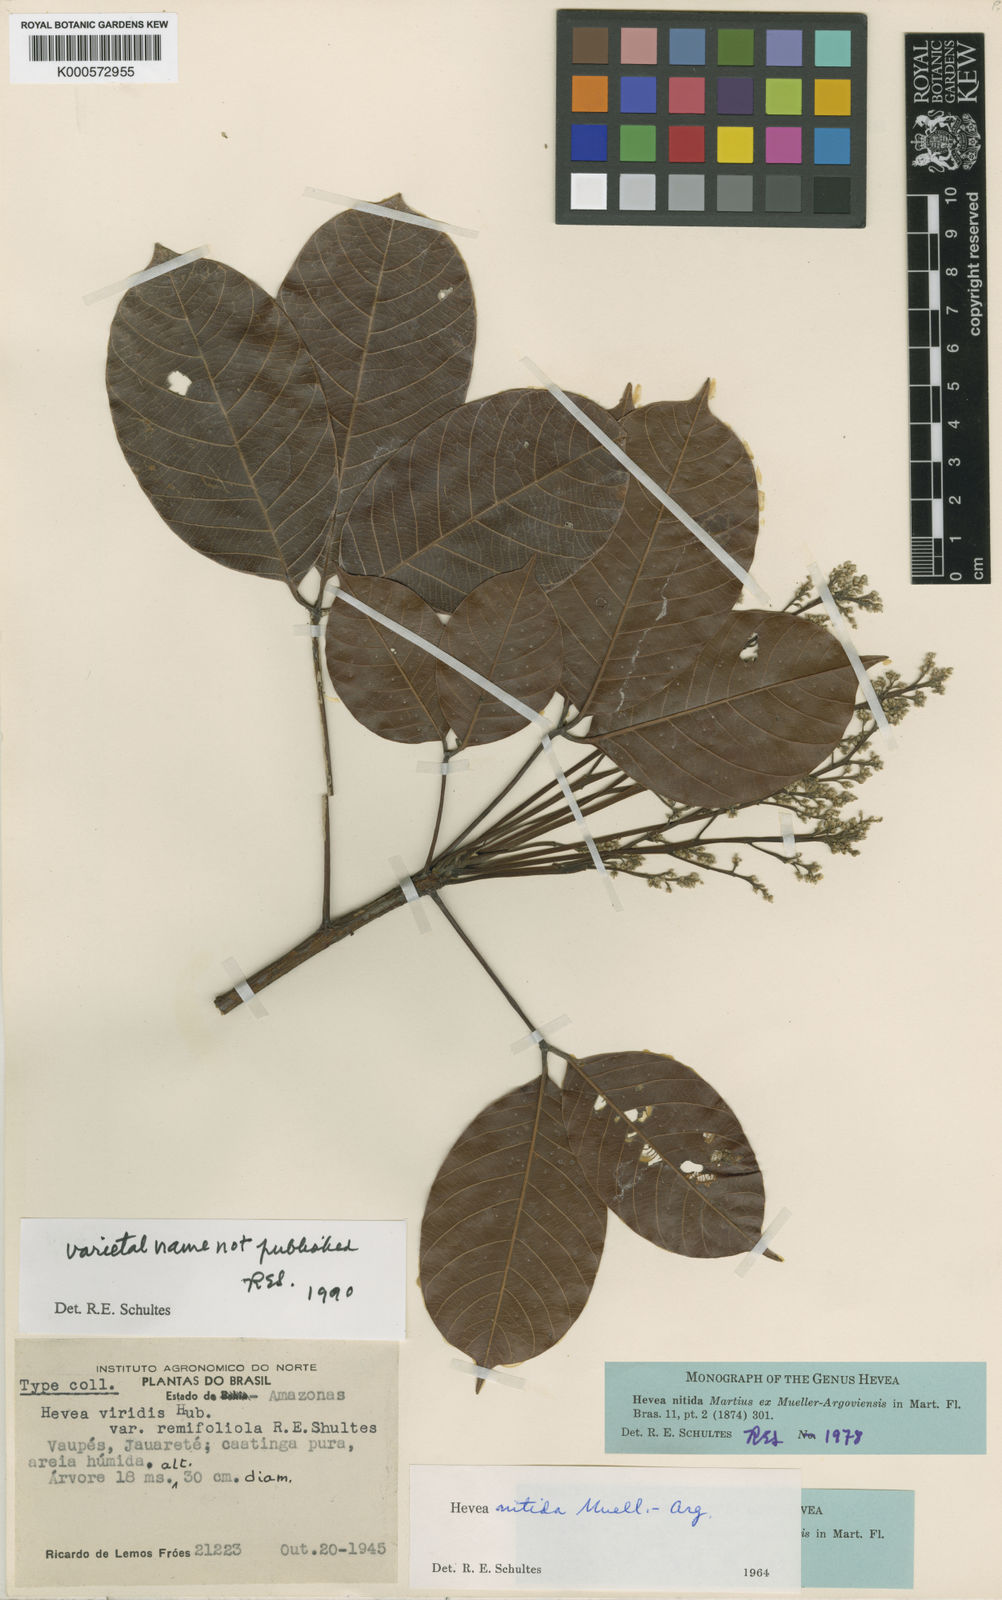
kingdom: Plantae
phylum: Tracheophyta
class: Magnoliopsida
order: Malpighiales
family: Euphorbiaceae
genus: Hevea
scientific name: Hevea nitida
